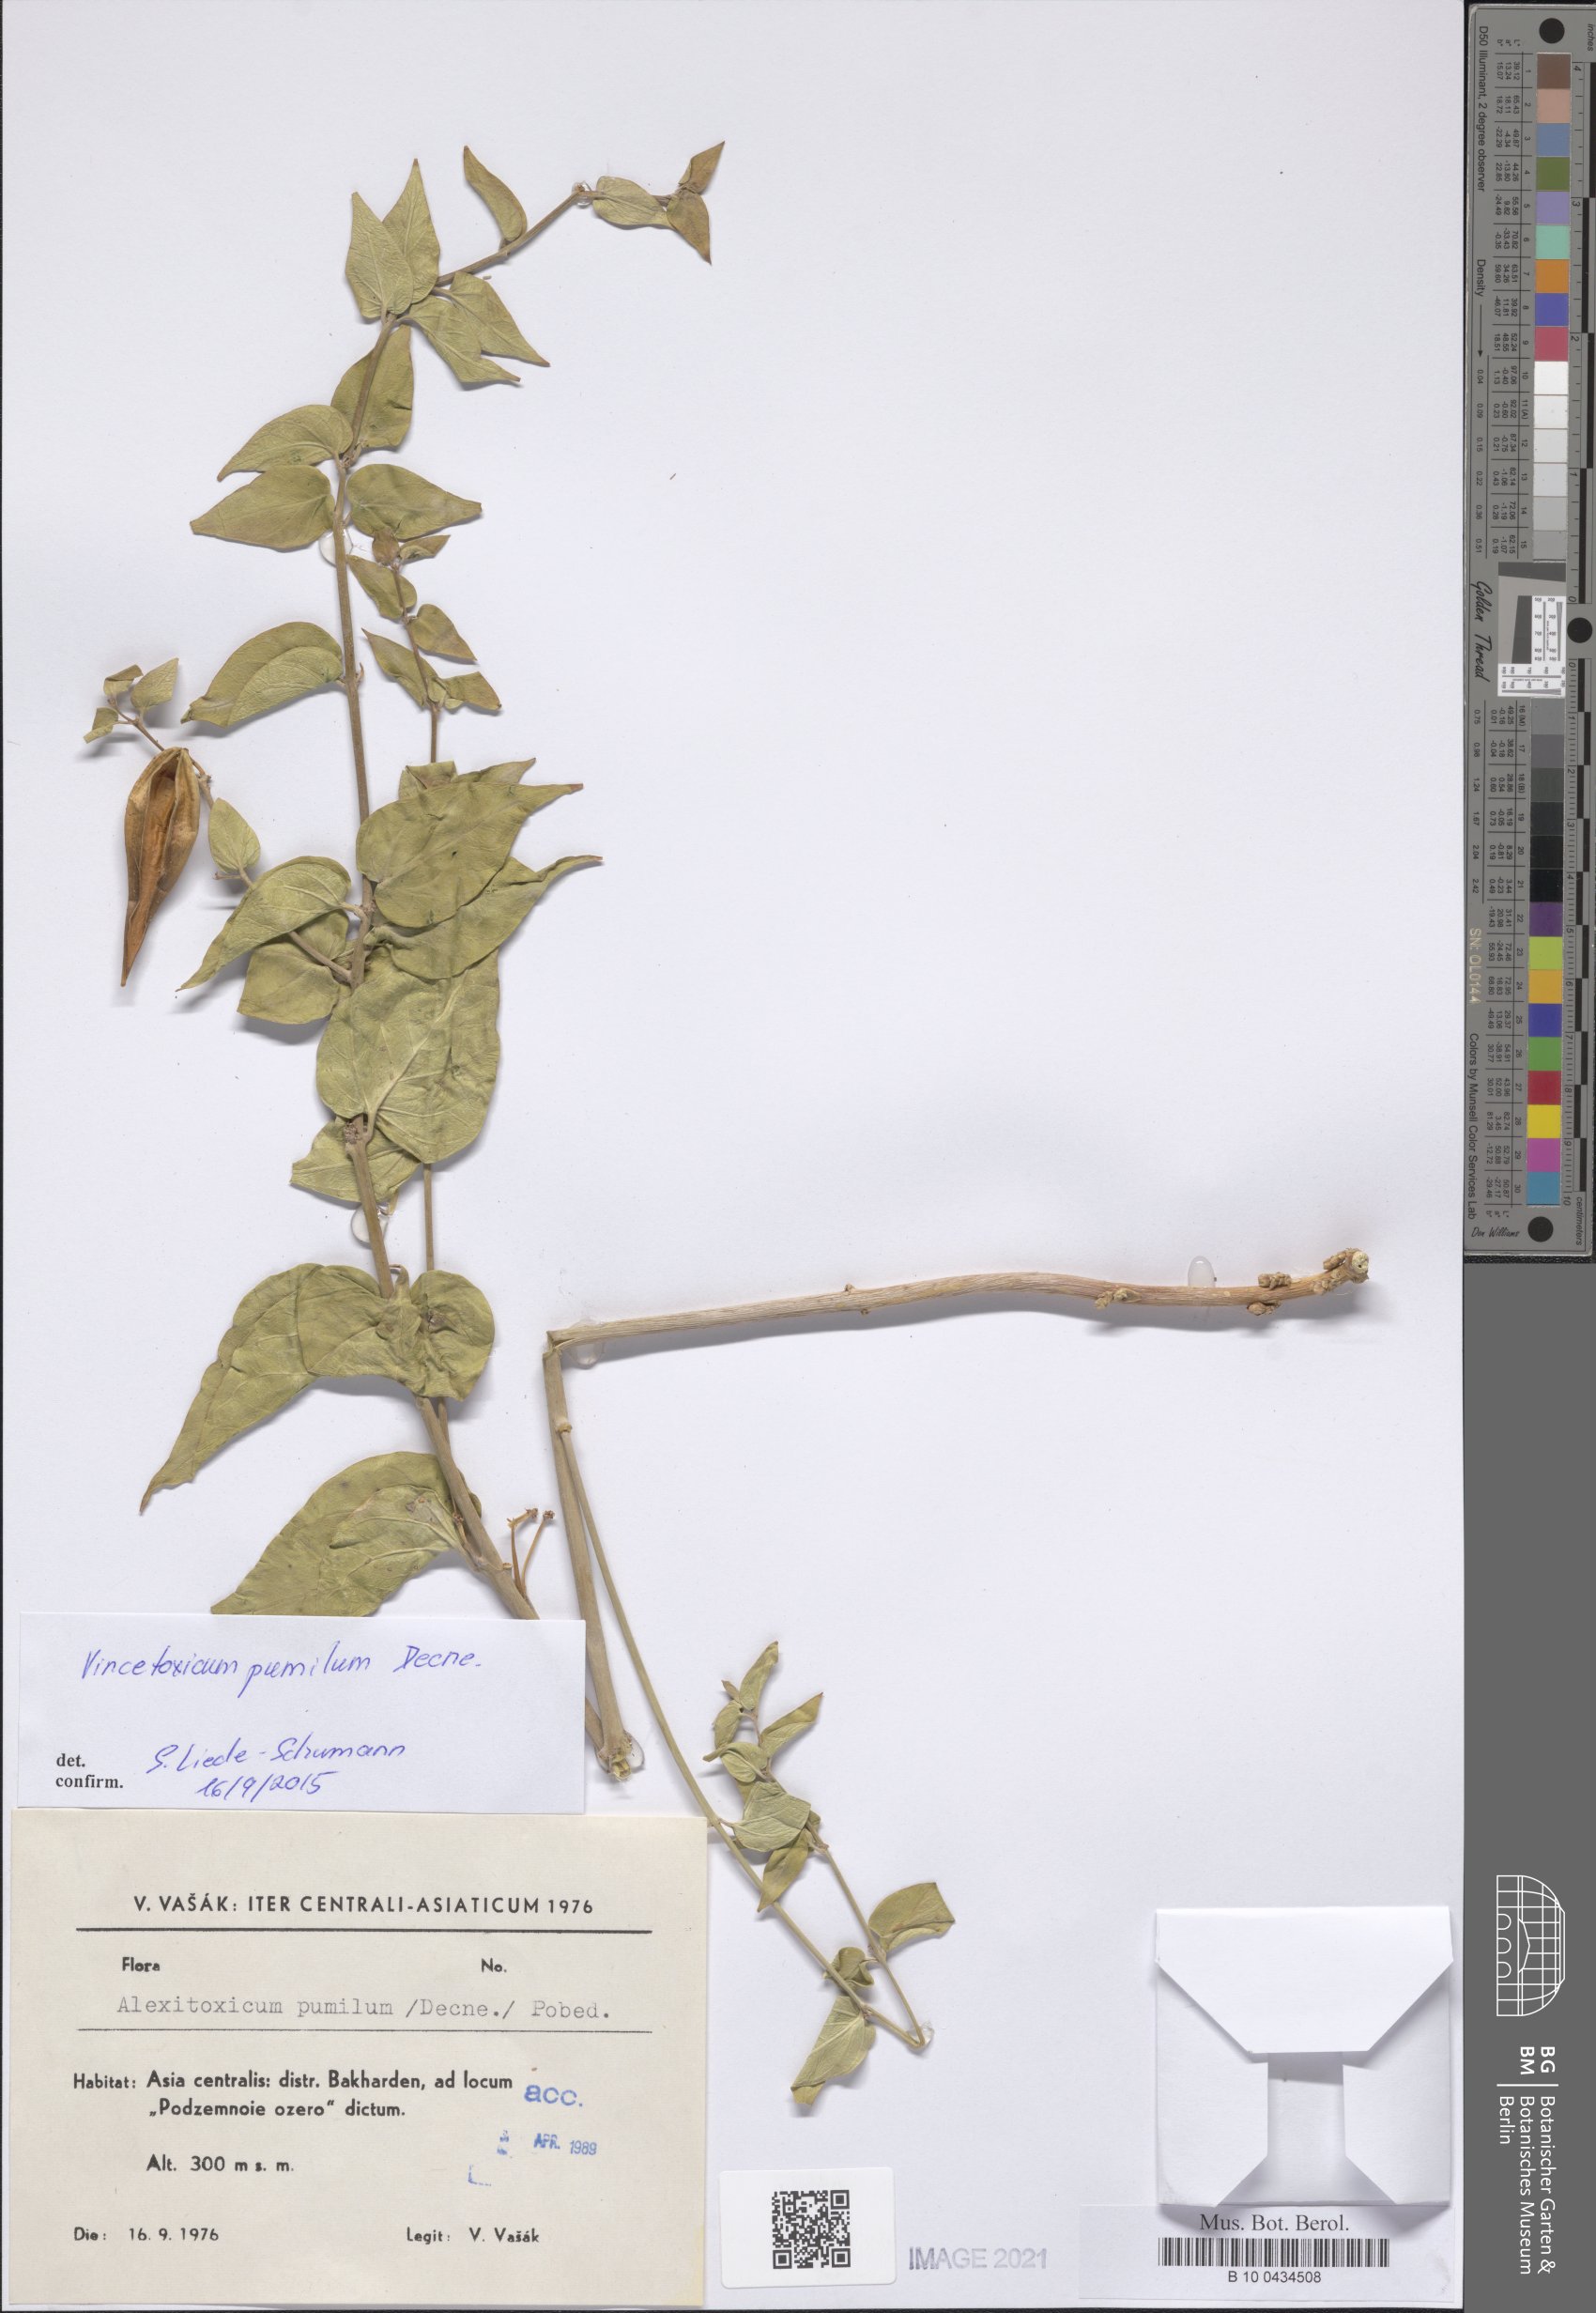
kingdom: Plantae
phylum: Tracheophyta
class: Magnoliopsida
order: Gentianales
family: Apocynaceae
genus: Vincetoxicum
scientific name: Vincetoxicum pumilum
